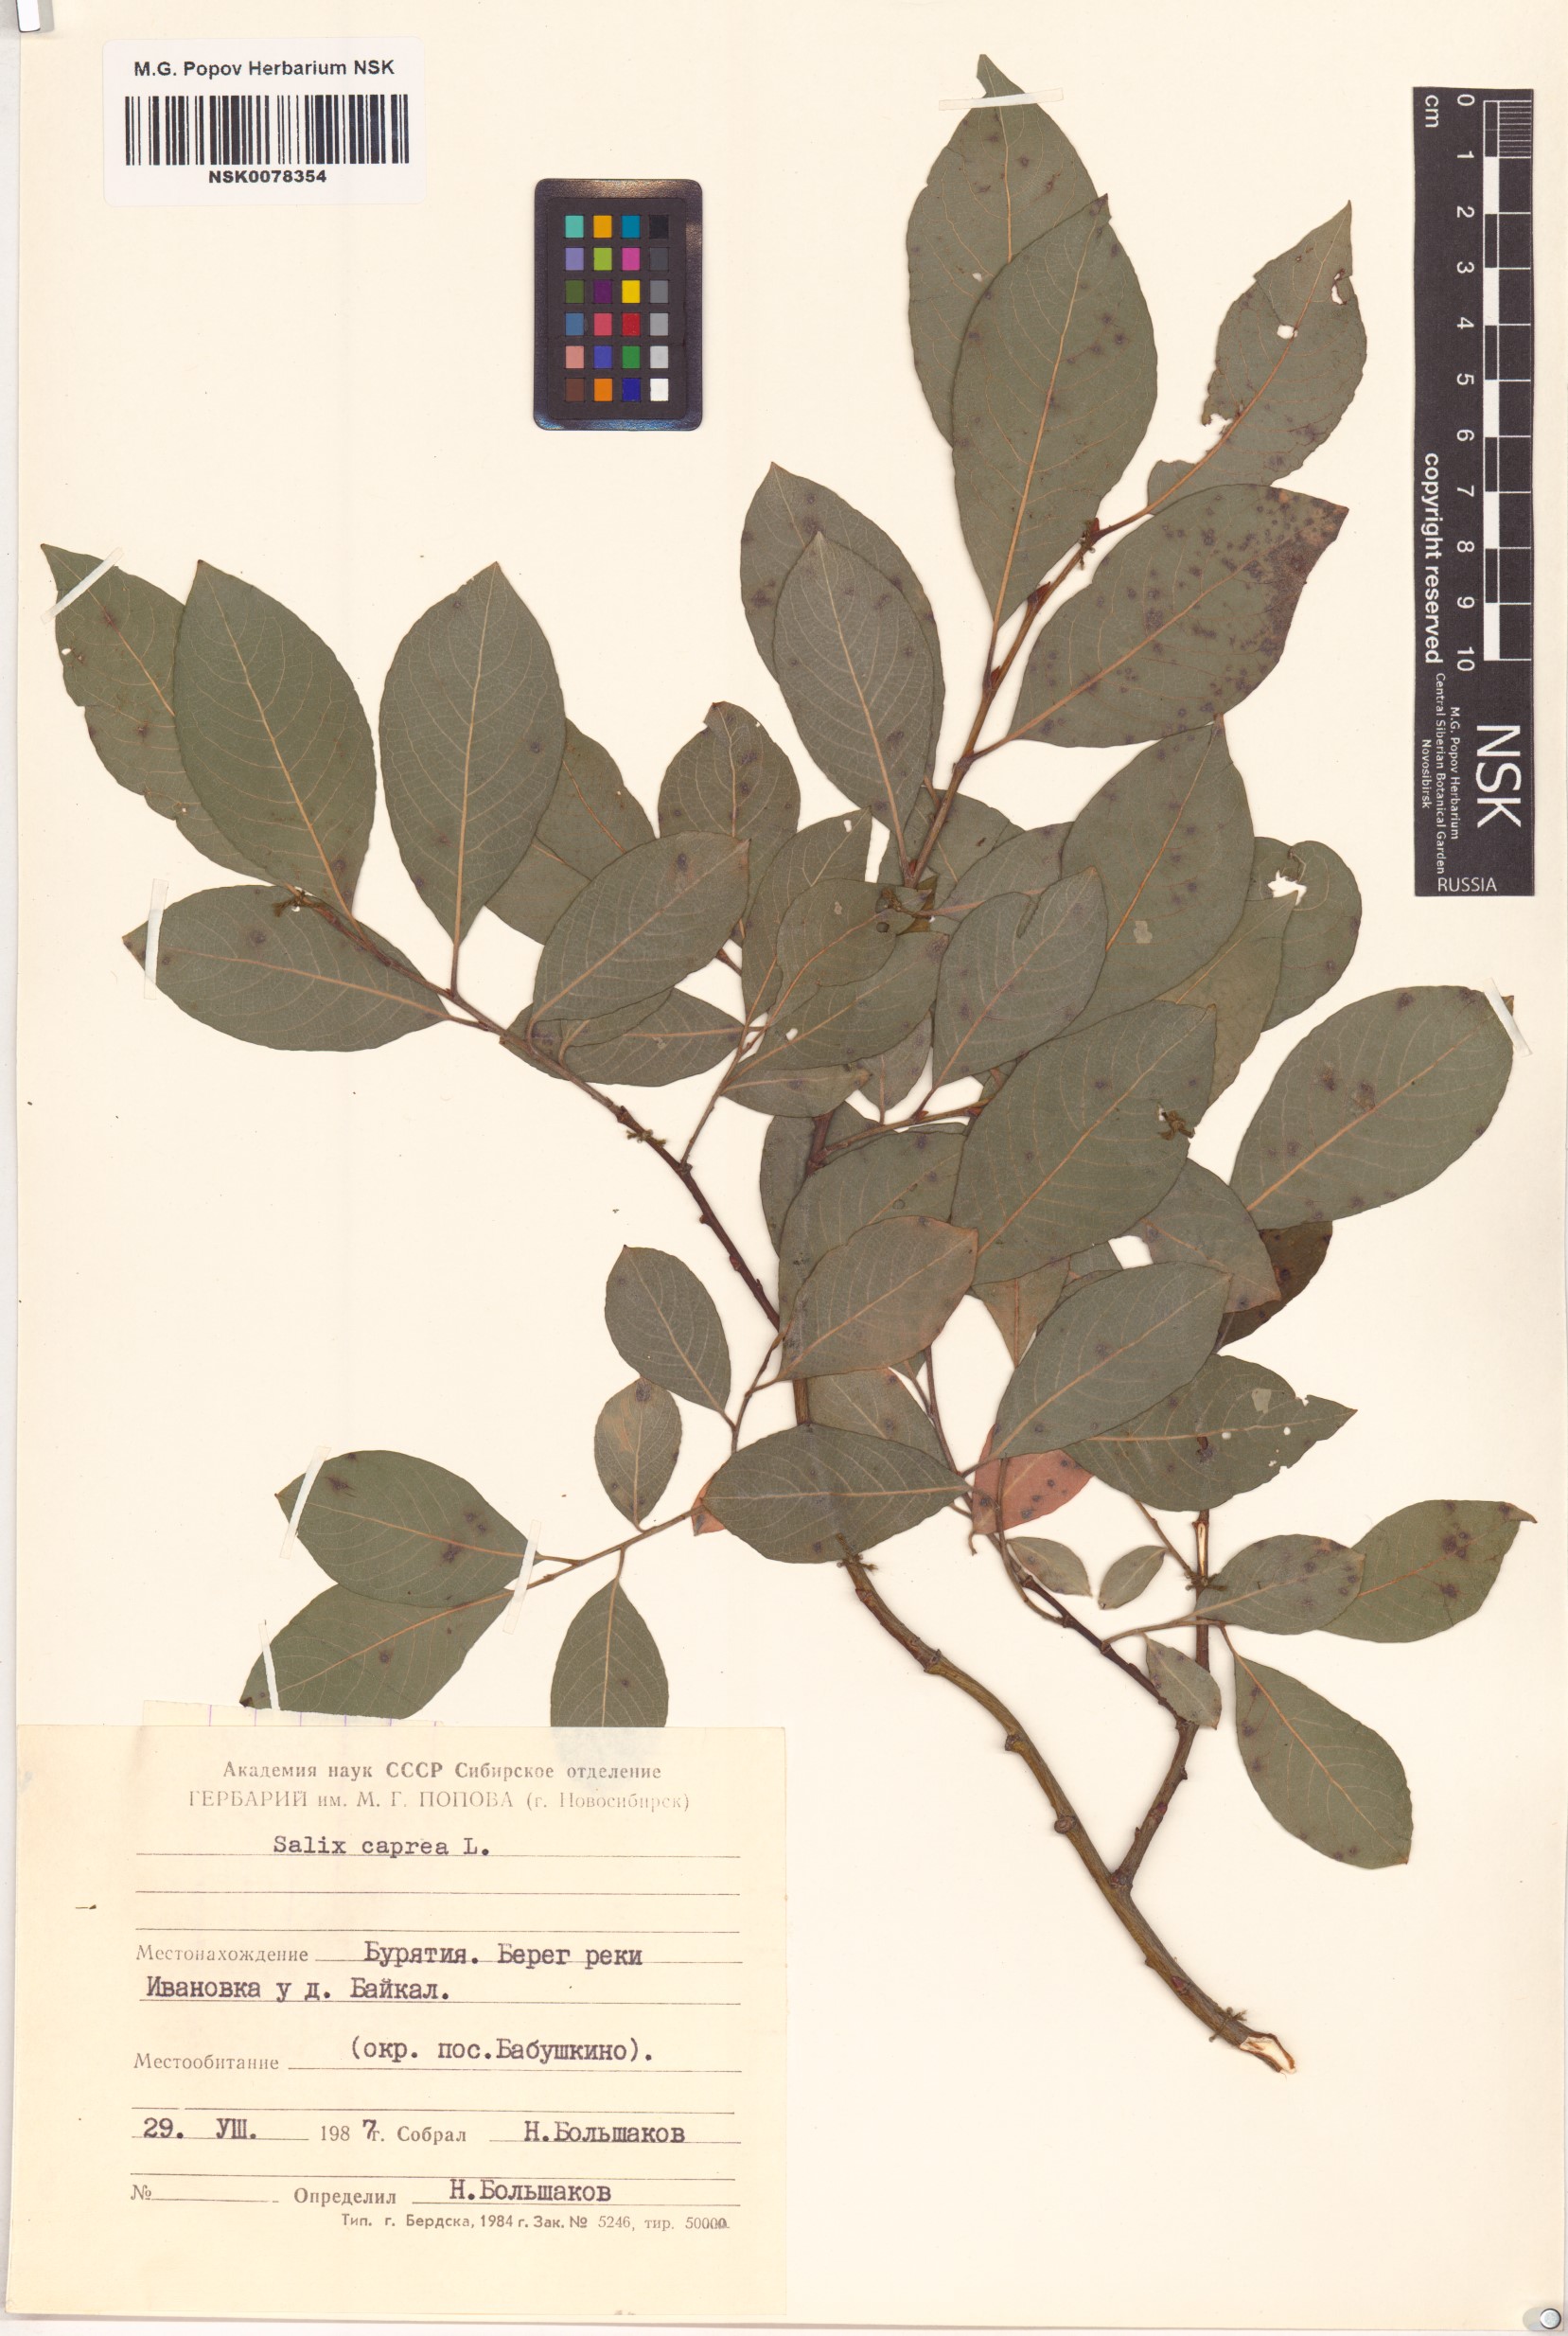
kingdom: Plantae
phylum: Tracheophyta
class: Magnoliopsida
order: Malpighiales
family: Salicaceae
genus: Salix
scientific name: Salix caprea
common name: Goat willow
